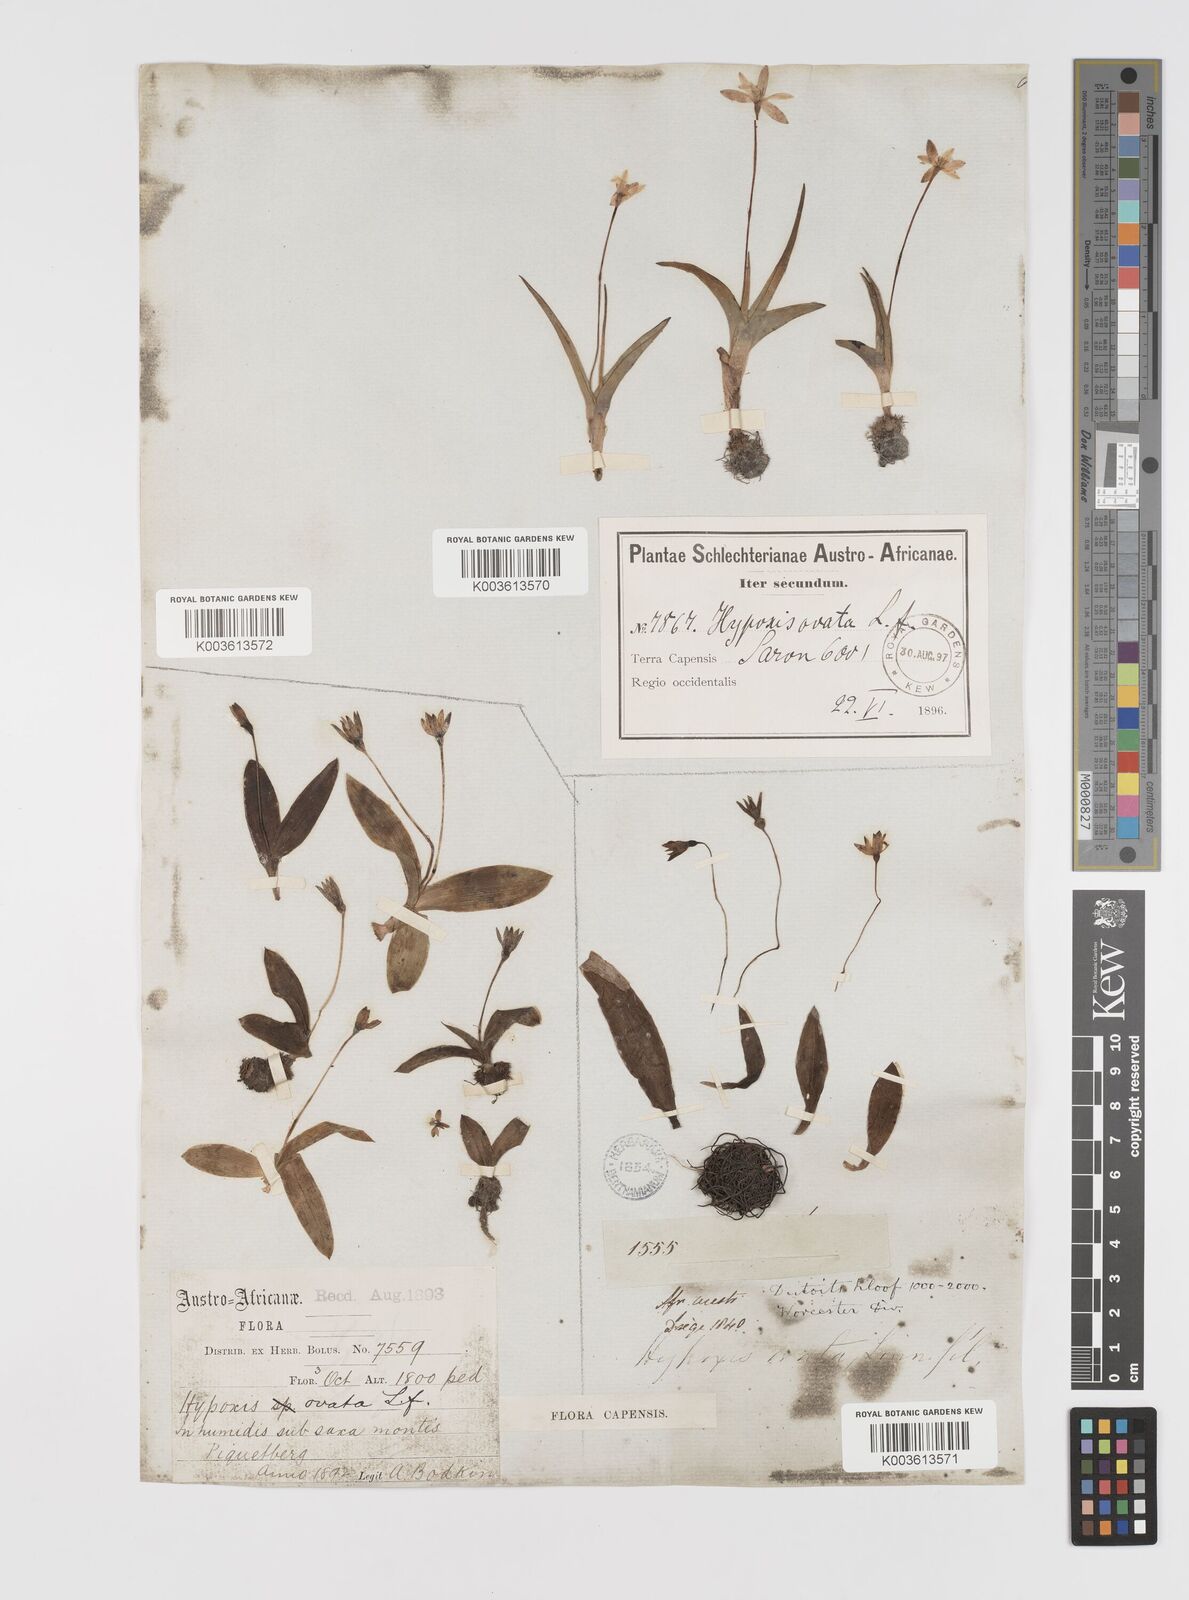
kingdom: Plantae
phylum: Tracheophyta
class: Liliopsida
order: Asparagales
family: Hypoxidaceae
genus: Pauridia
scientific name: Pauridia ovata
